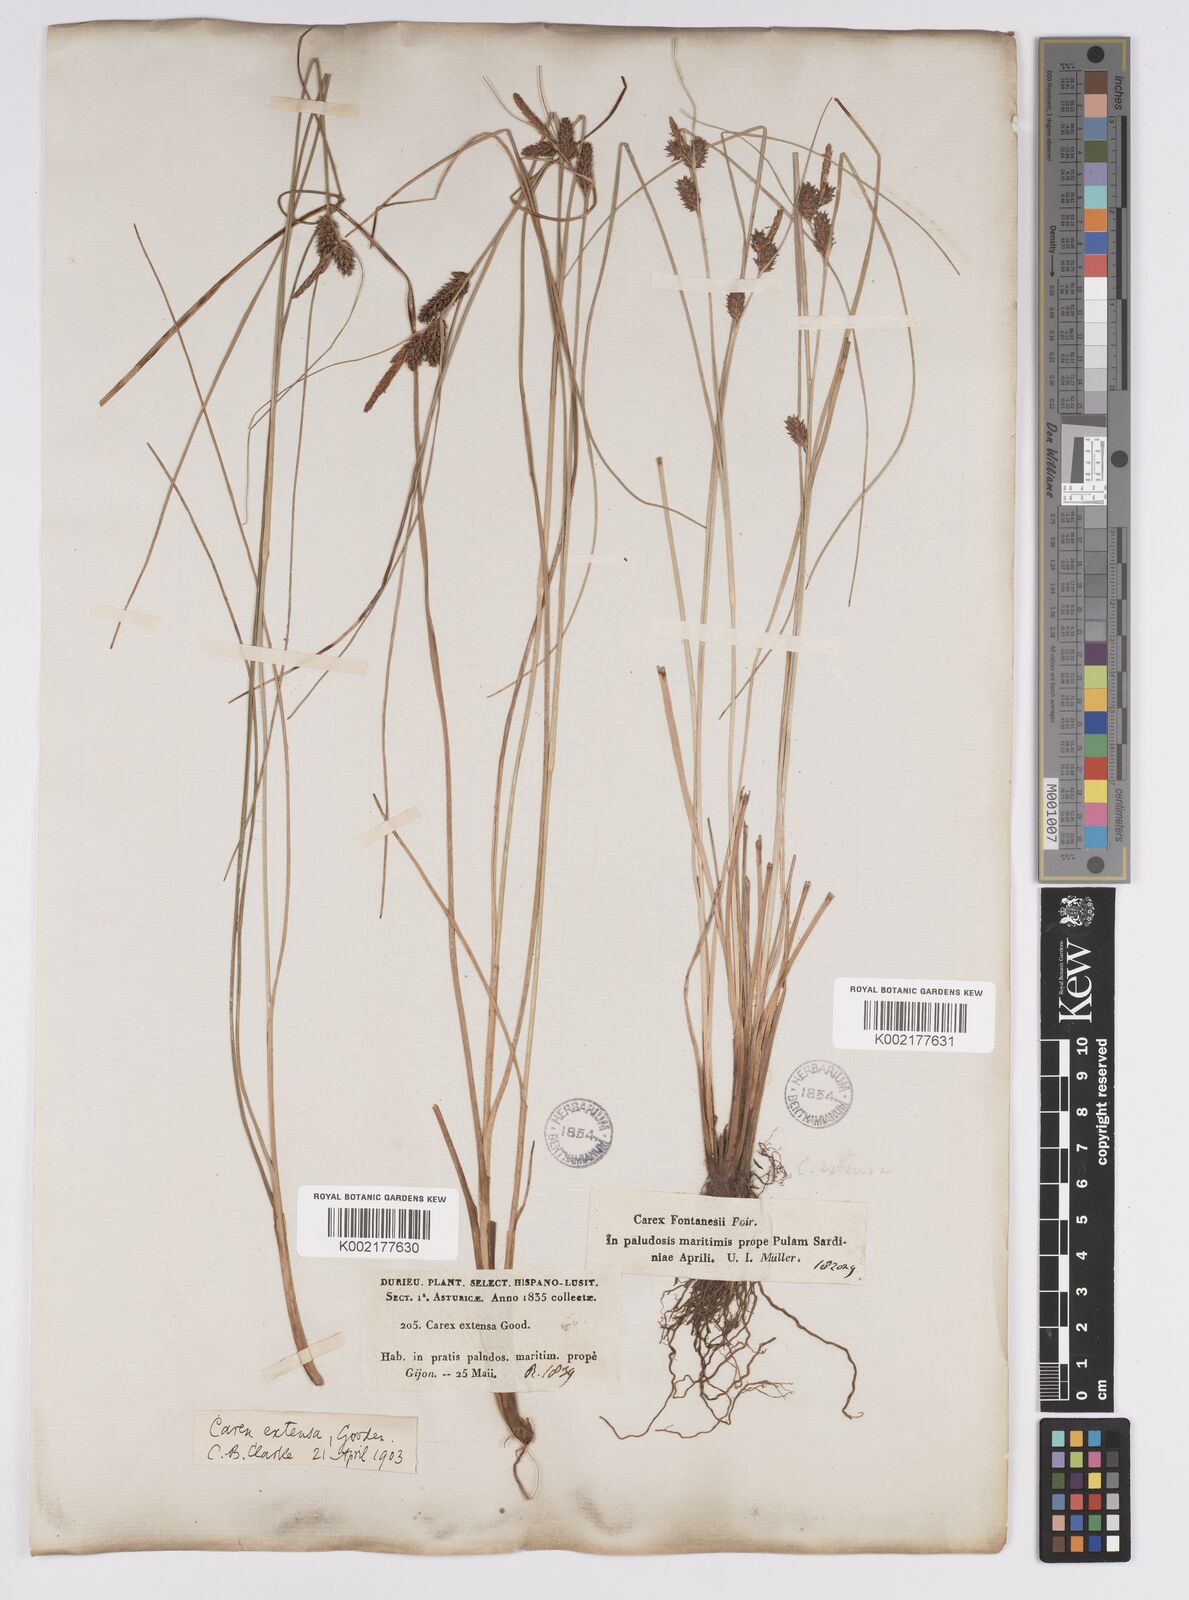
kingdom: Plantae
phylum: Tracheophyta
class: Liliopsida
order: Poales
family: Cyperaceae
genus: Carex
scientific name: Carex extensa
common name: Long-bracted sedge
